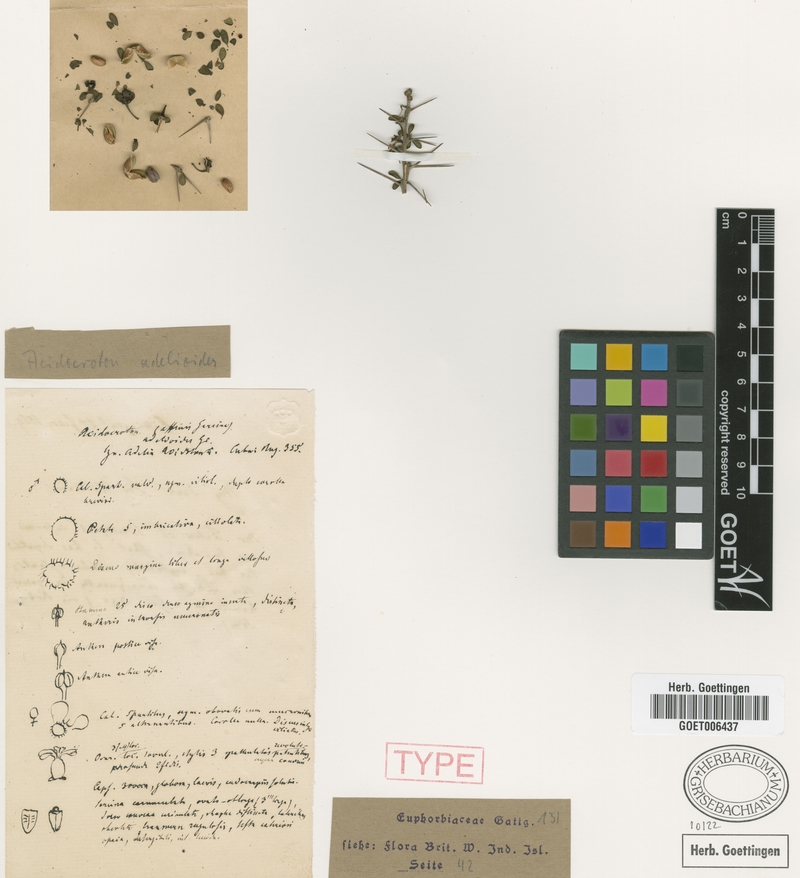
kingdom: Plantae
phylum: Tracheophyta
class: Magnoliopsida
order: Malpighiales
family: Euphorbiaceae
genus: Acidocroton
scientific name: Acidocroton adelioides
